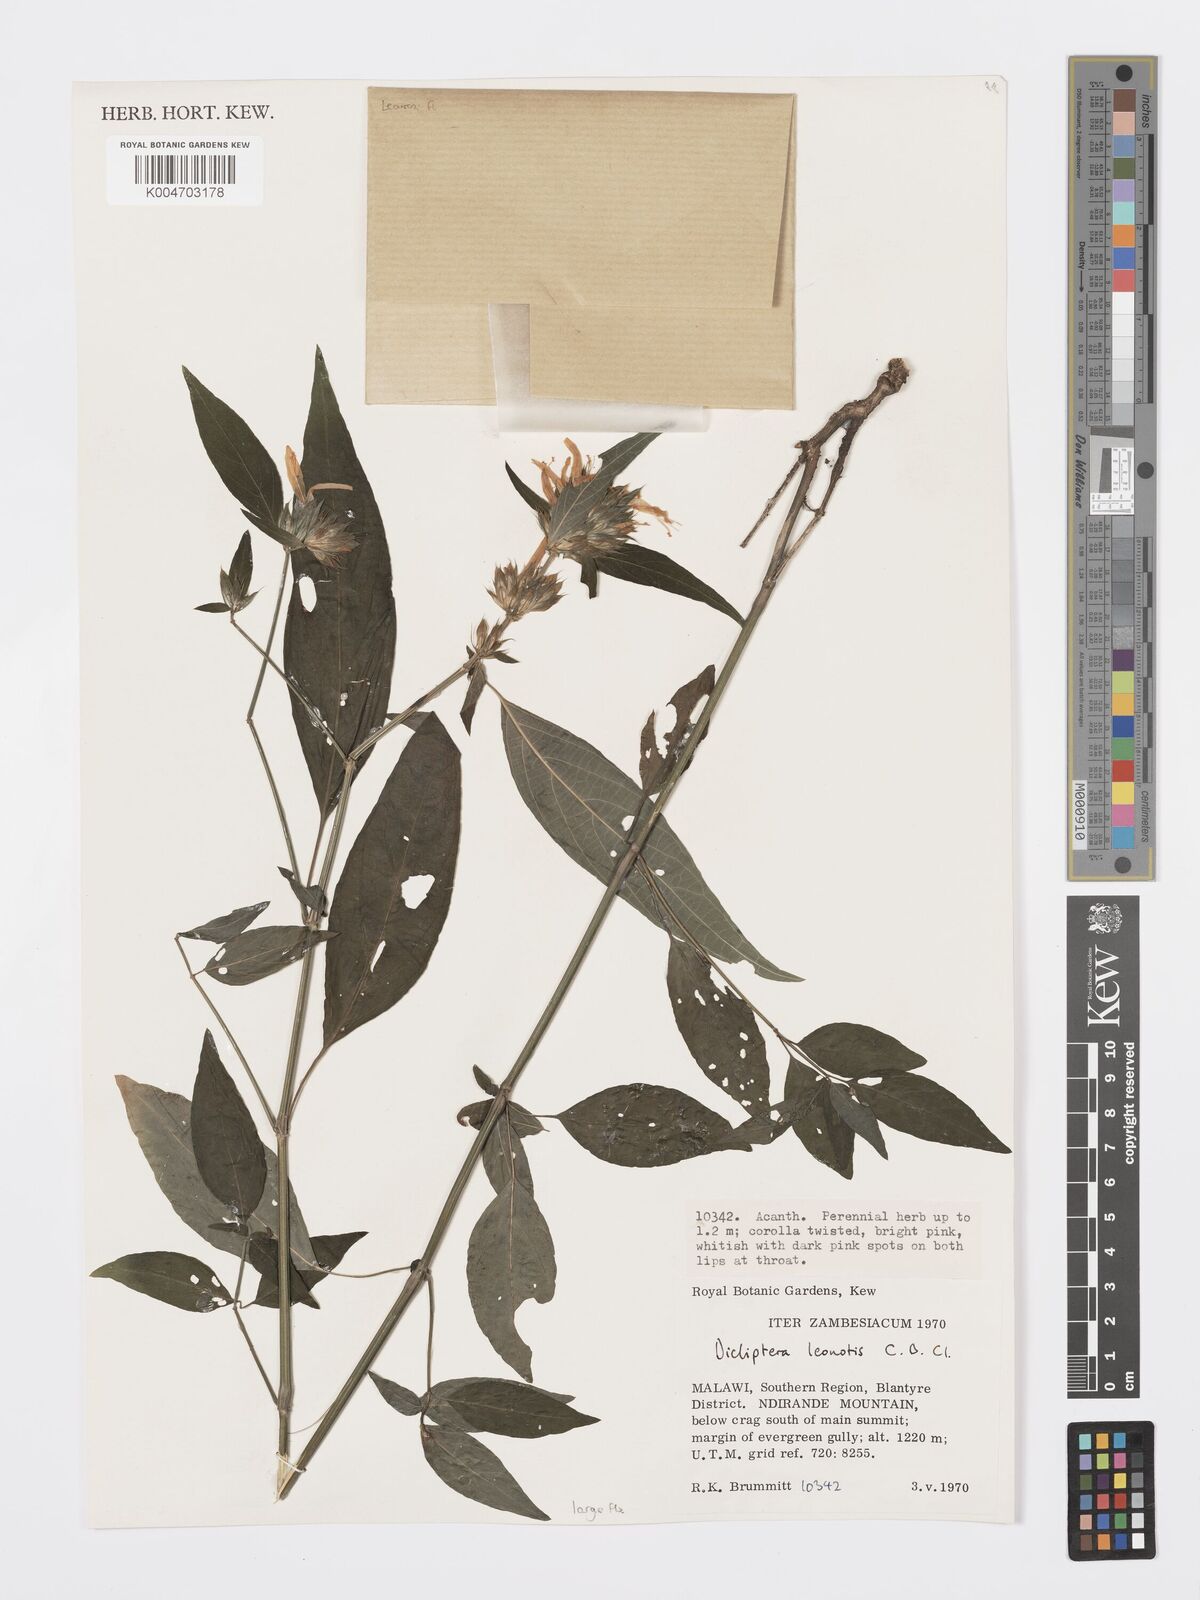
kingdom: Plantae
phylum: Tracheophyta
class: Magnoliopsida
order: Lamiales
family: Acanthaceae
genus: Dicliptera
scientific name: Dicliptera clinopodia
